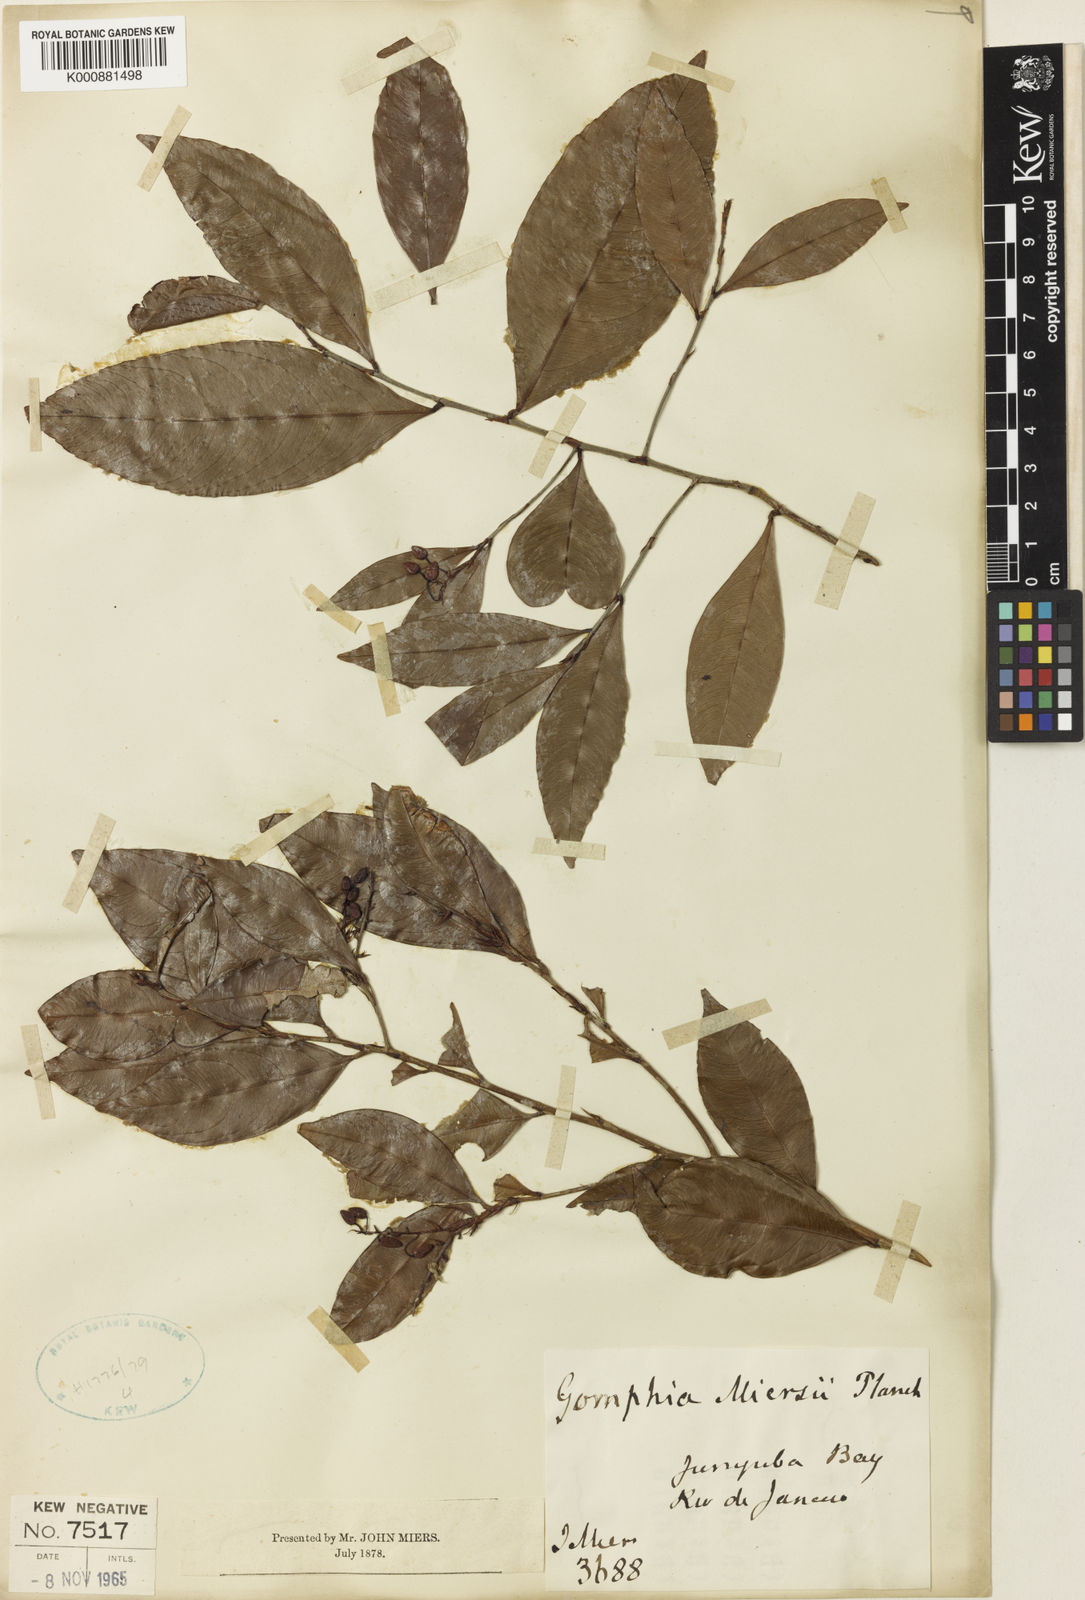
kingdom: Plantae
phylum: Tracheophyta
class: Magnoliopsida
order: Malpighiales
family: Ochnaceae
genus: Ouratea
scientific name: Ouratea miersii
